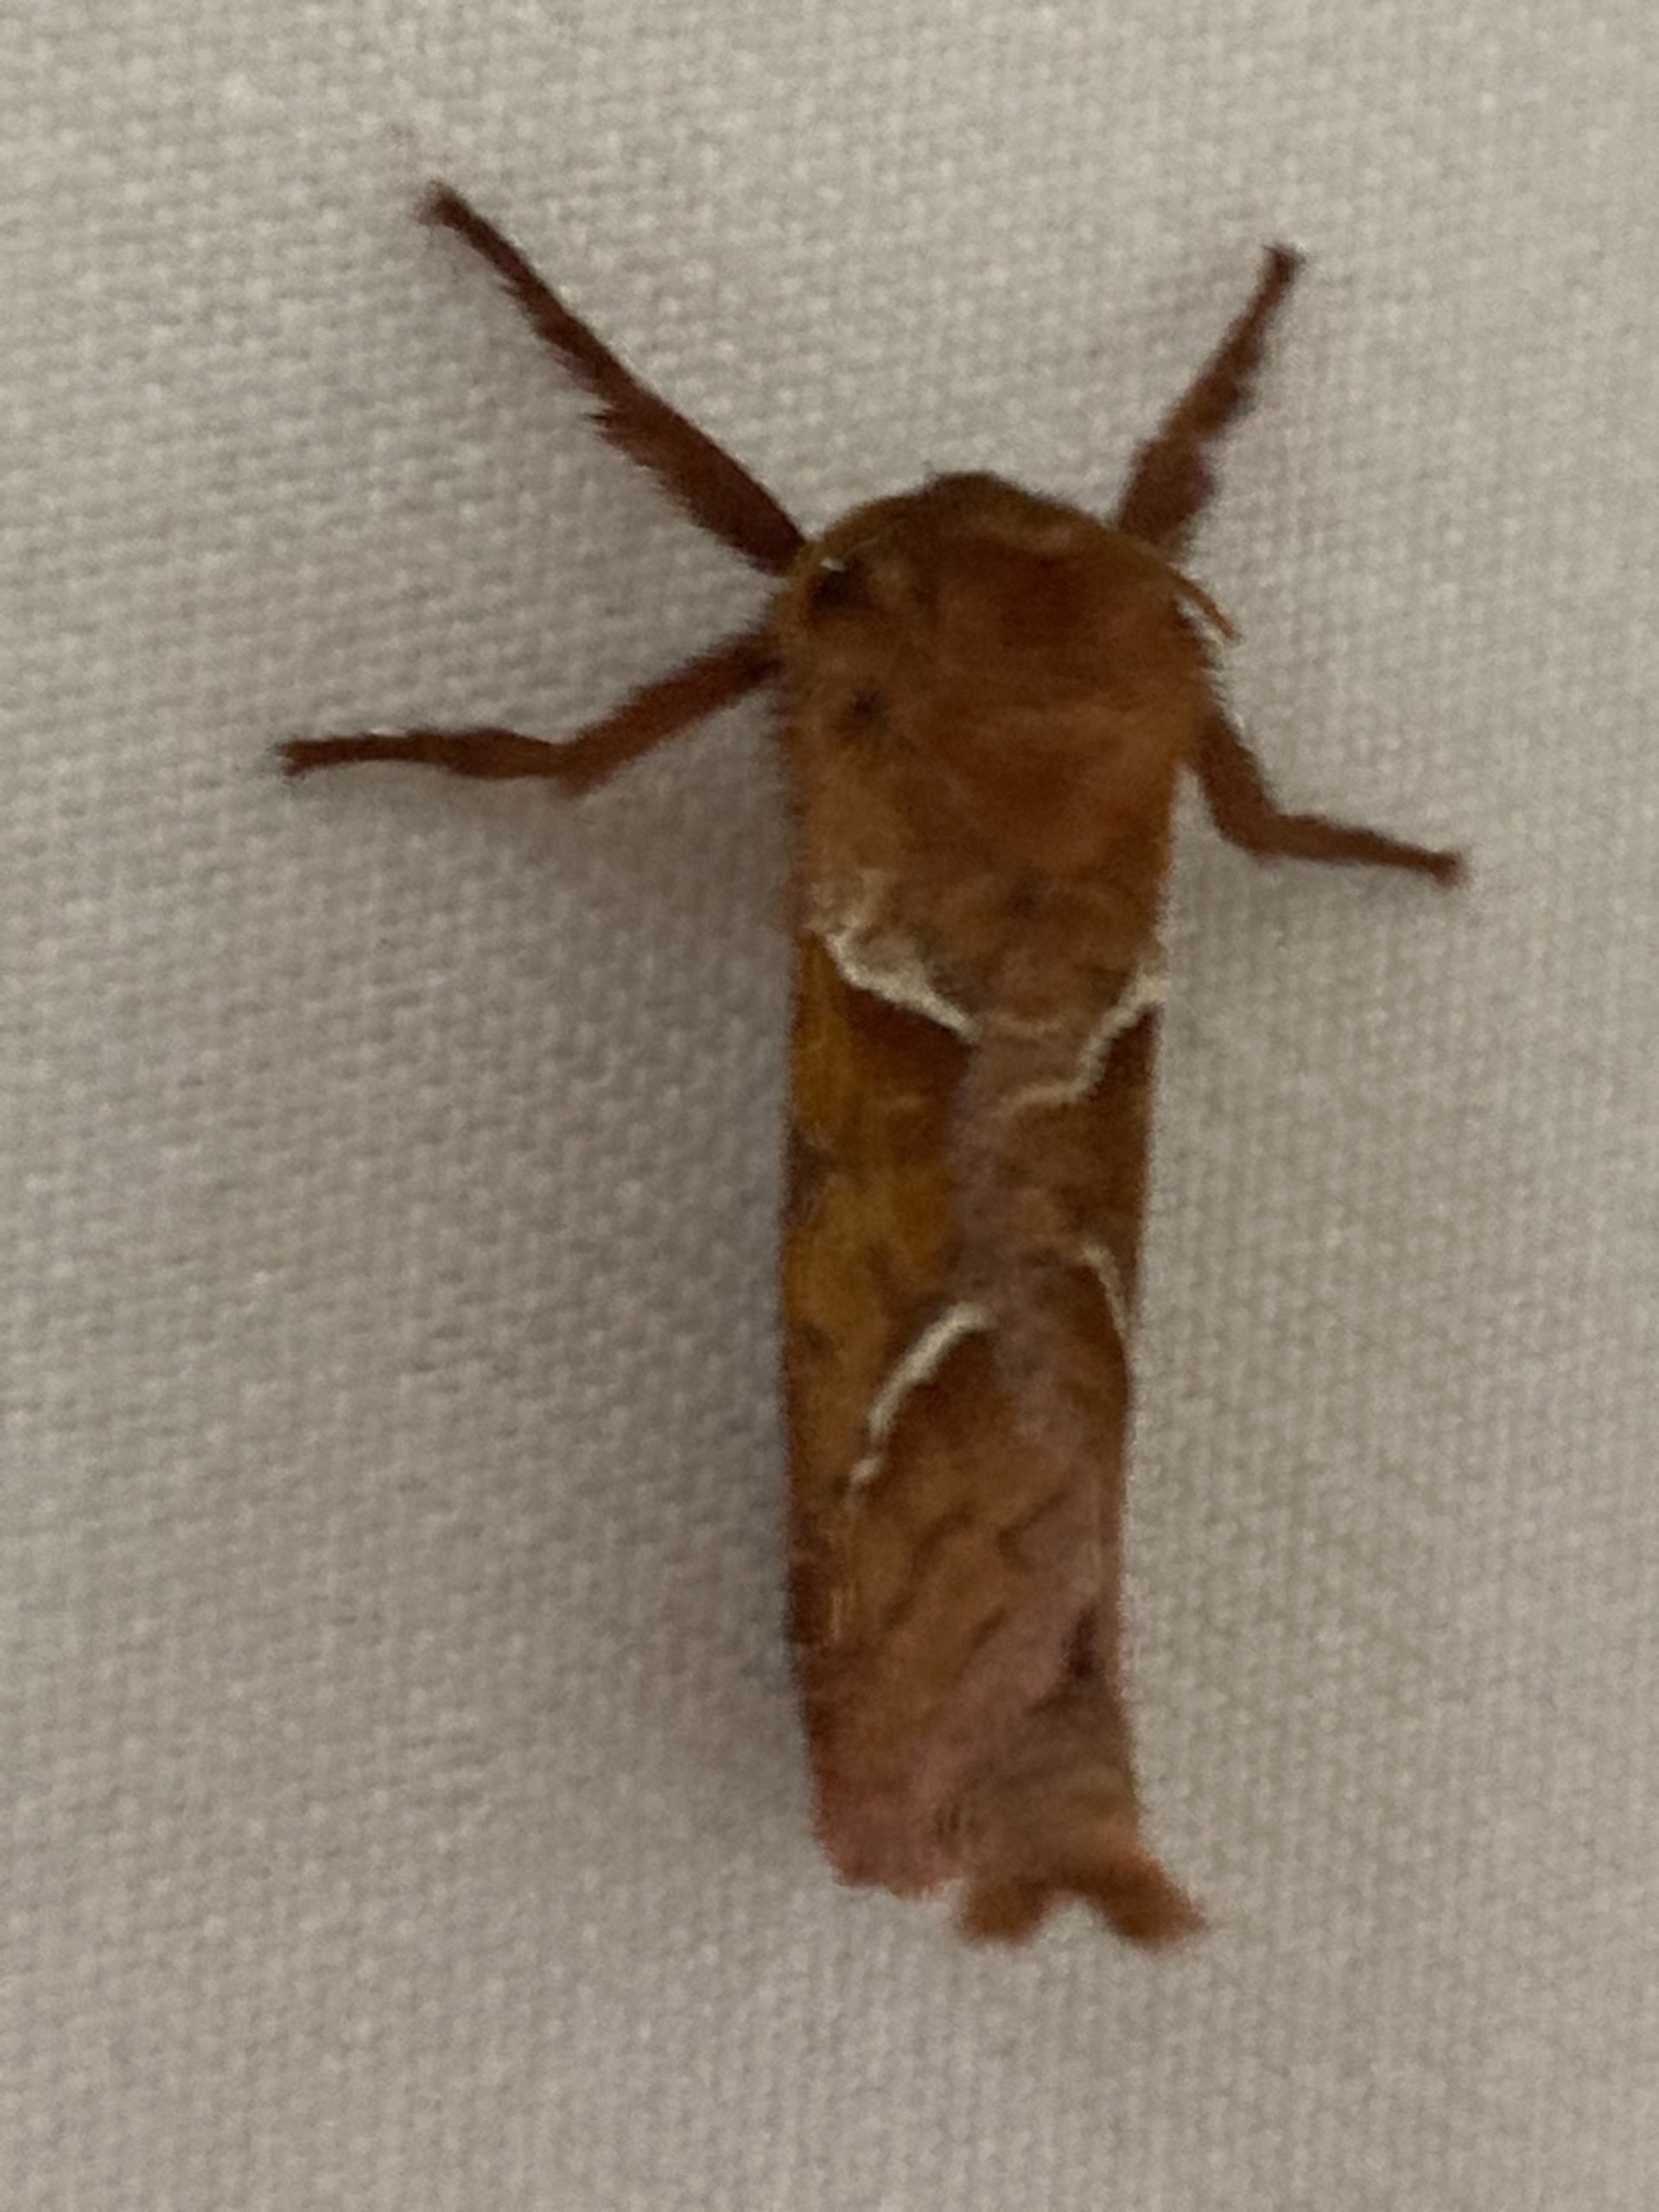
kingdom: Animalia
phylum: Arthropoda
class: Insecta
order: Lepidoptera
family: Hepialidae
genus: Korscheltellus
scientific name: Korscheltellus lupulina
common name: Konvalrodæder
